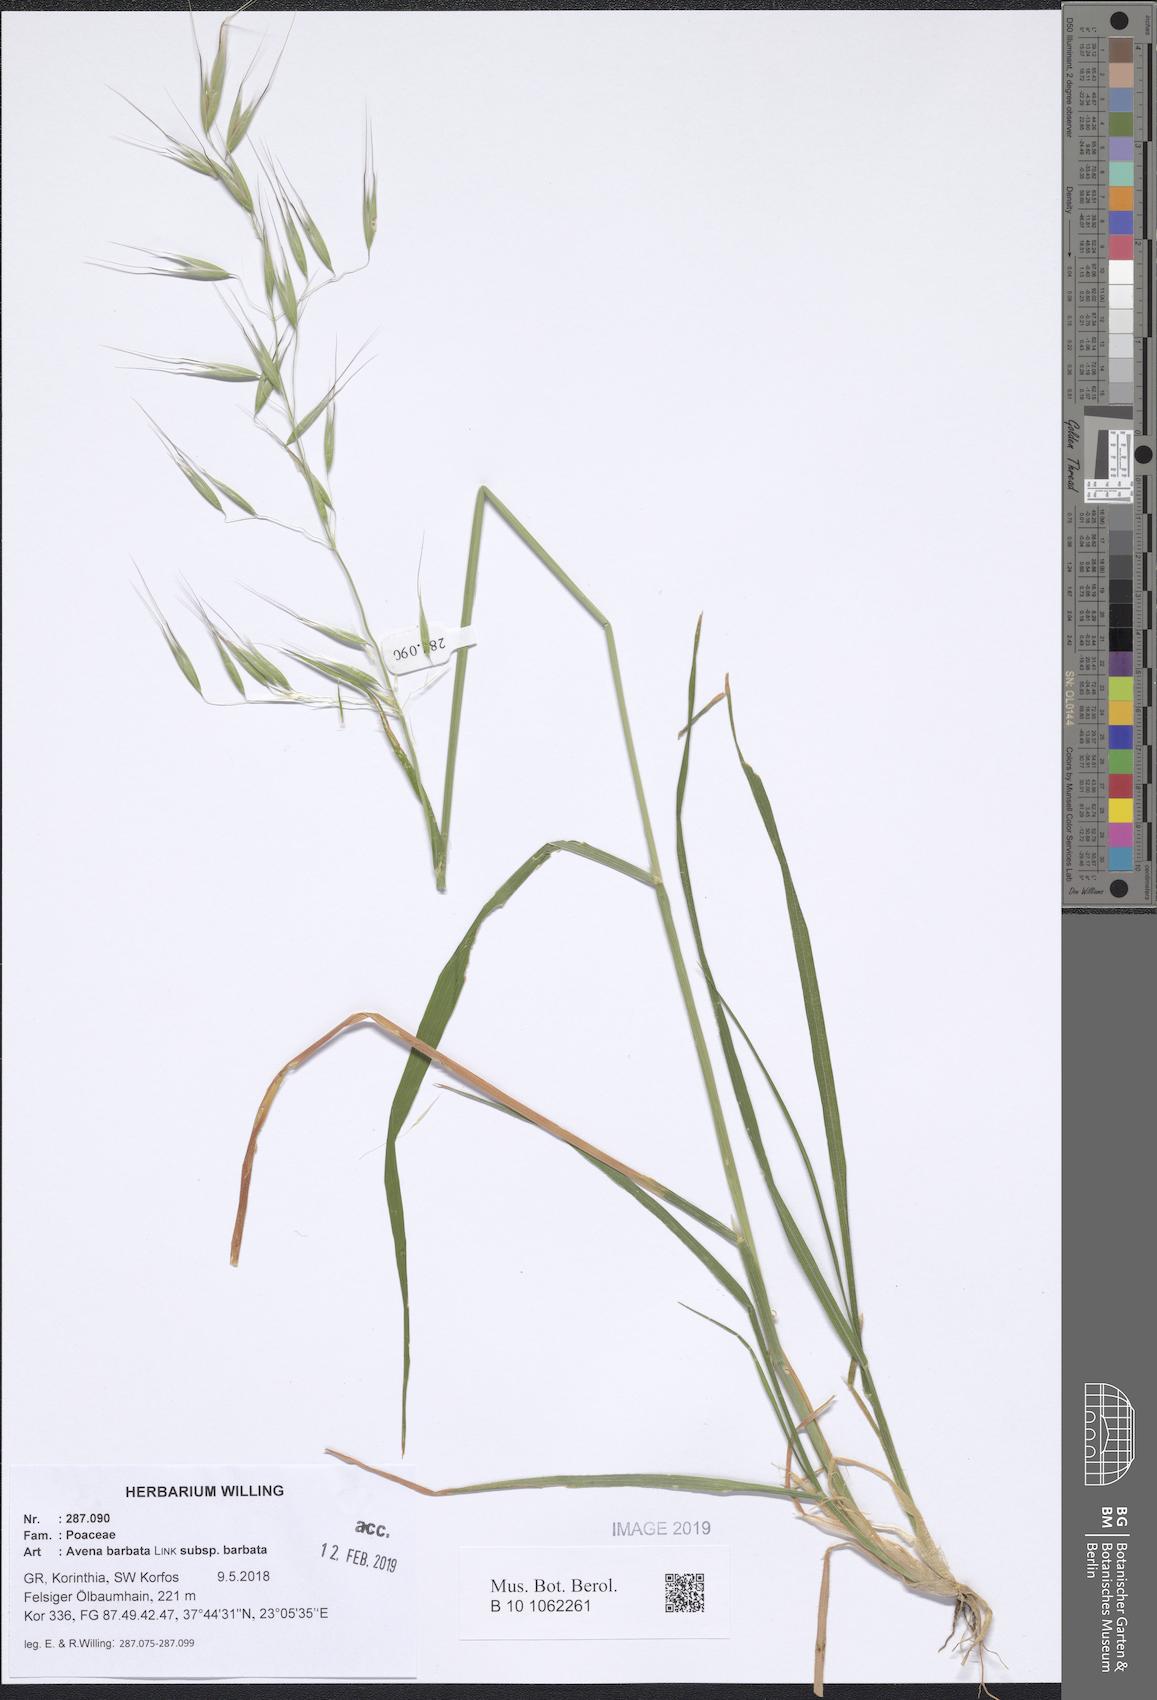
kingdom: Plantae
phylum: Tracheophyta
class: Liliopsida
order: Poales
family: Poaceae
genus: Avena
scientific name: Avena barbata
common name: Slender oat
